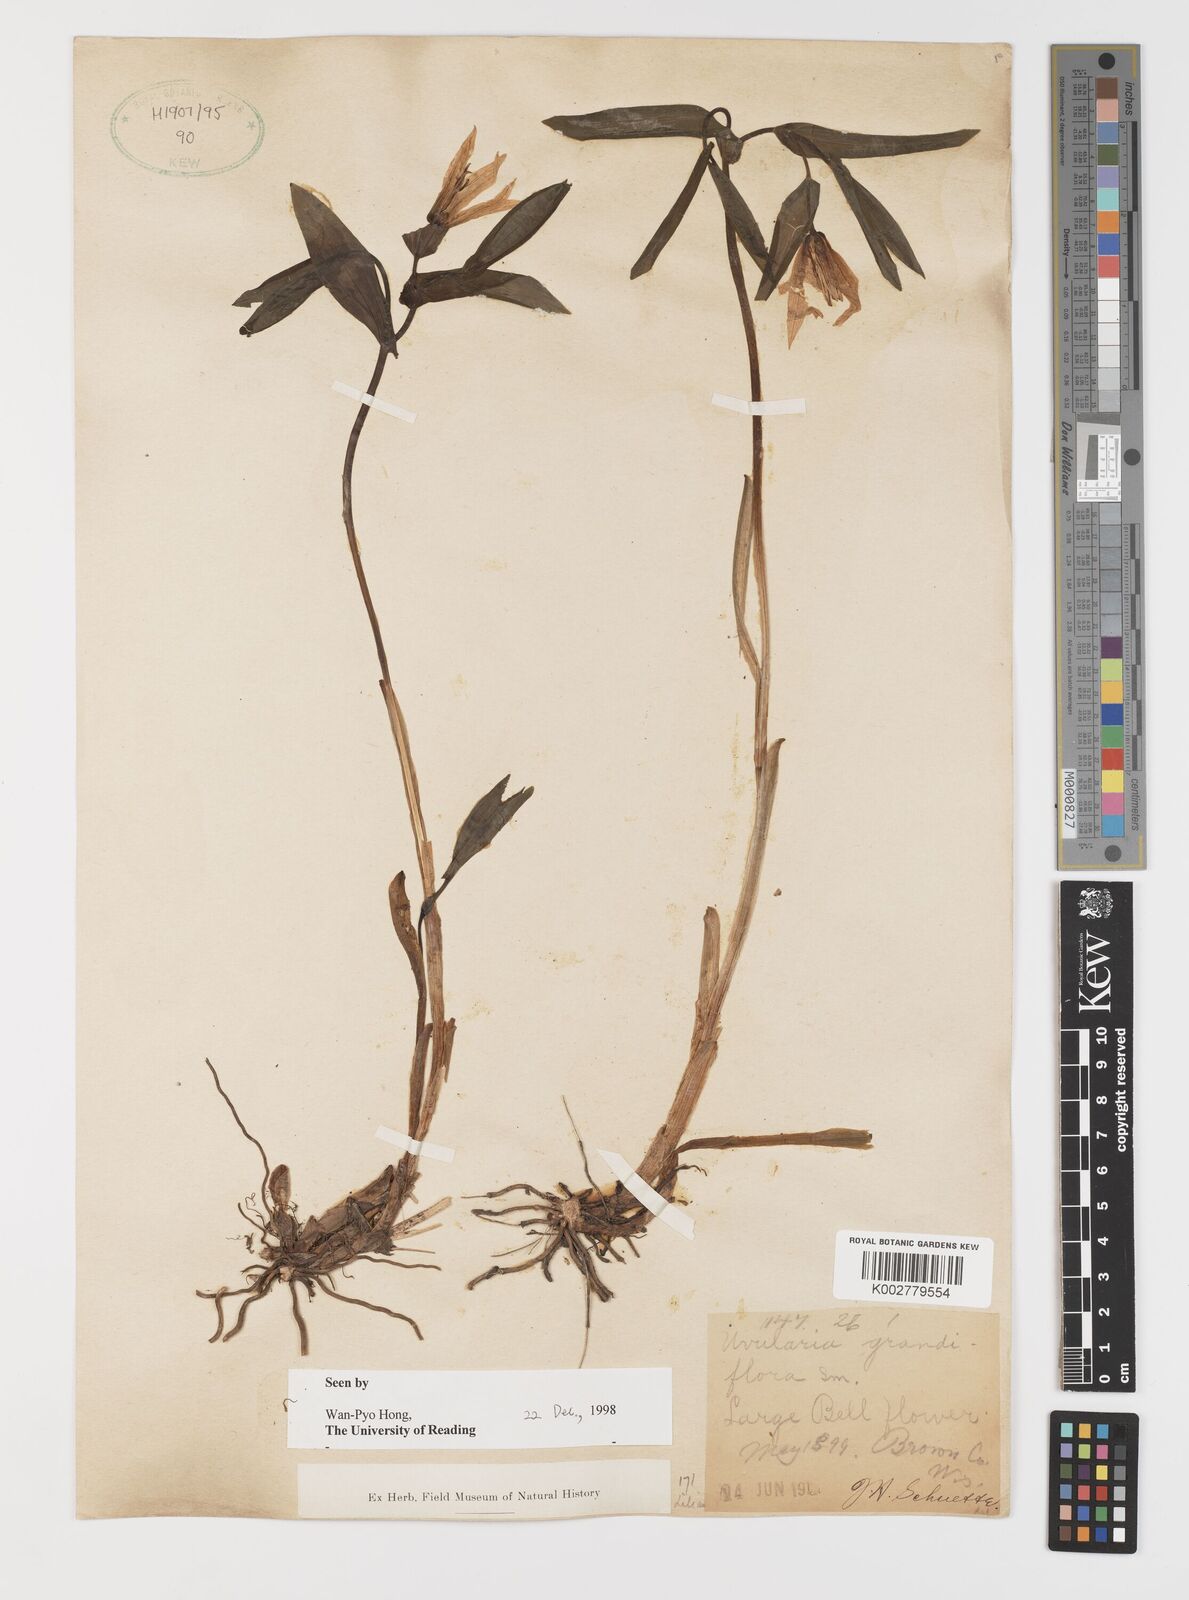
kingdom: Plantae
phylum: Tracheophyta
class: Liliopsida
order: Liliales
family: Colchicaceae
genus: Uvularia
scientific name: Uvularia grandiflora
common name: Bellwort
